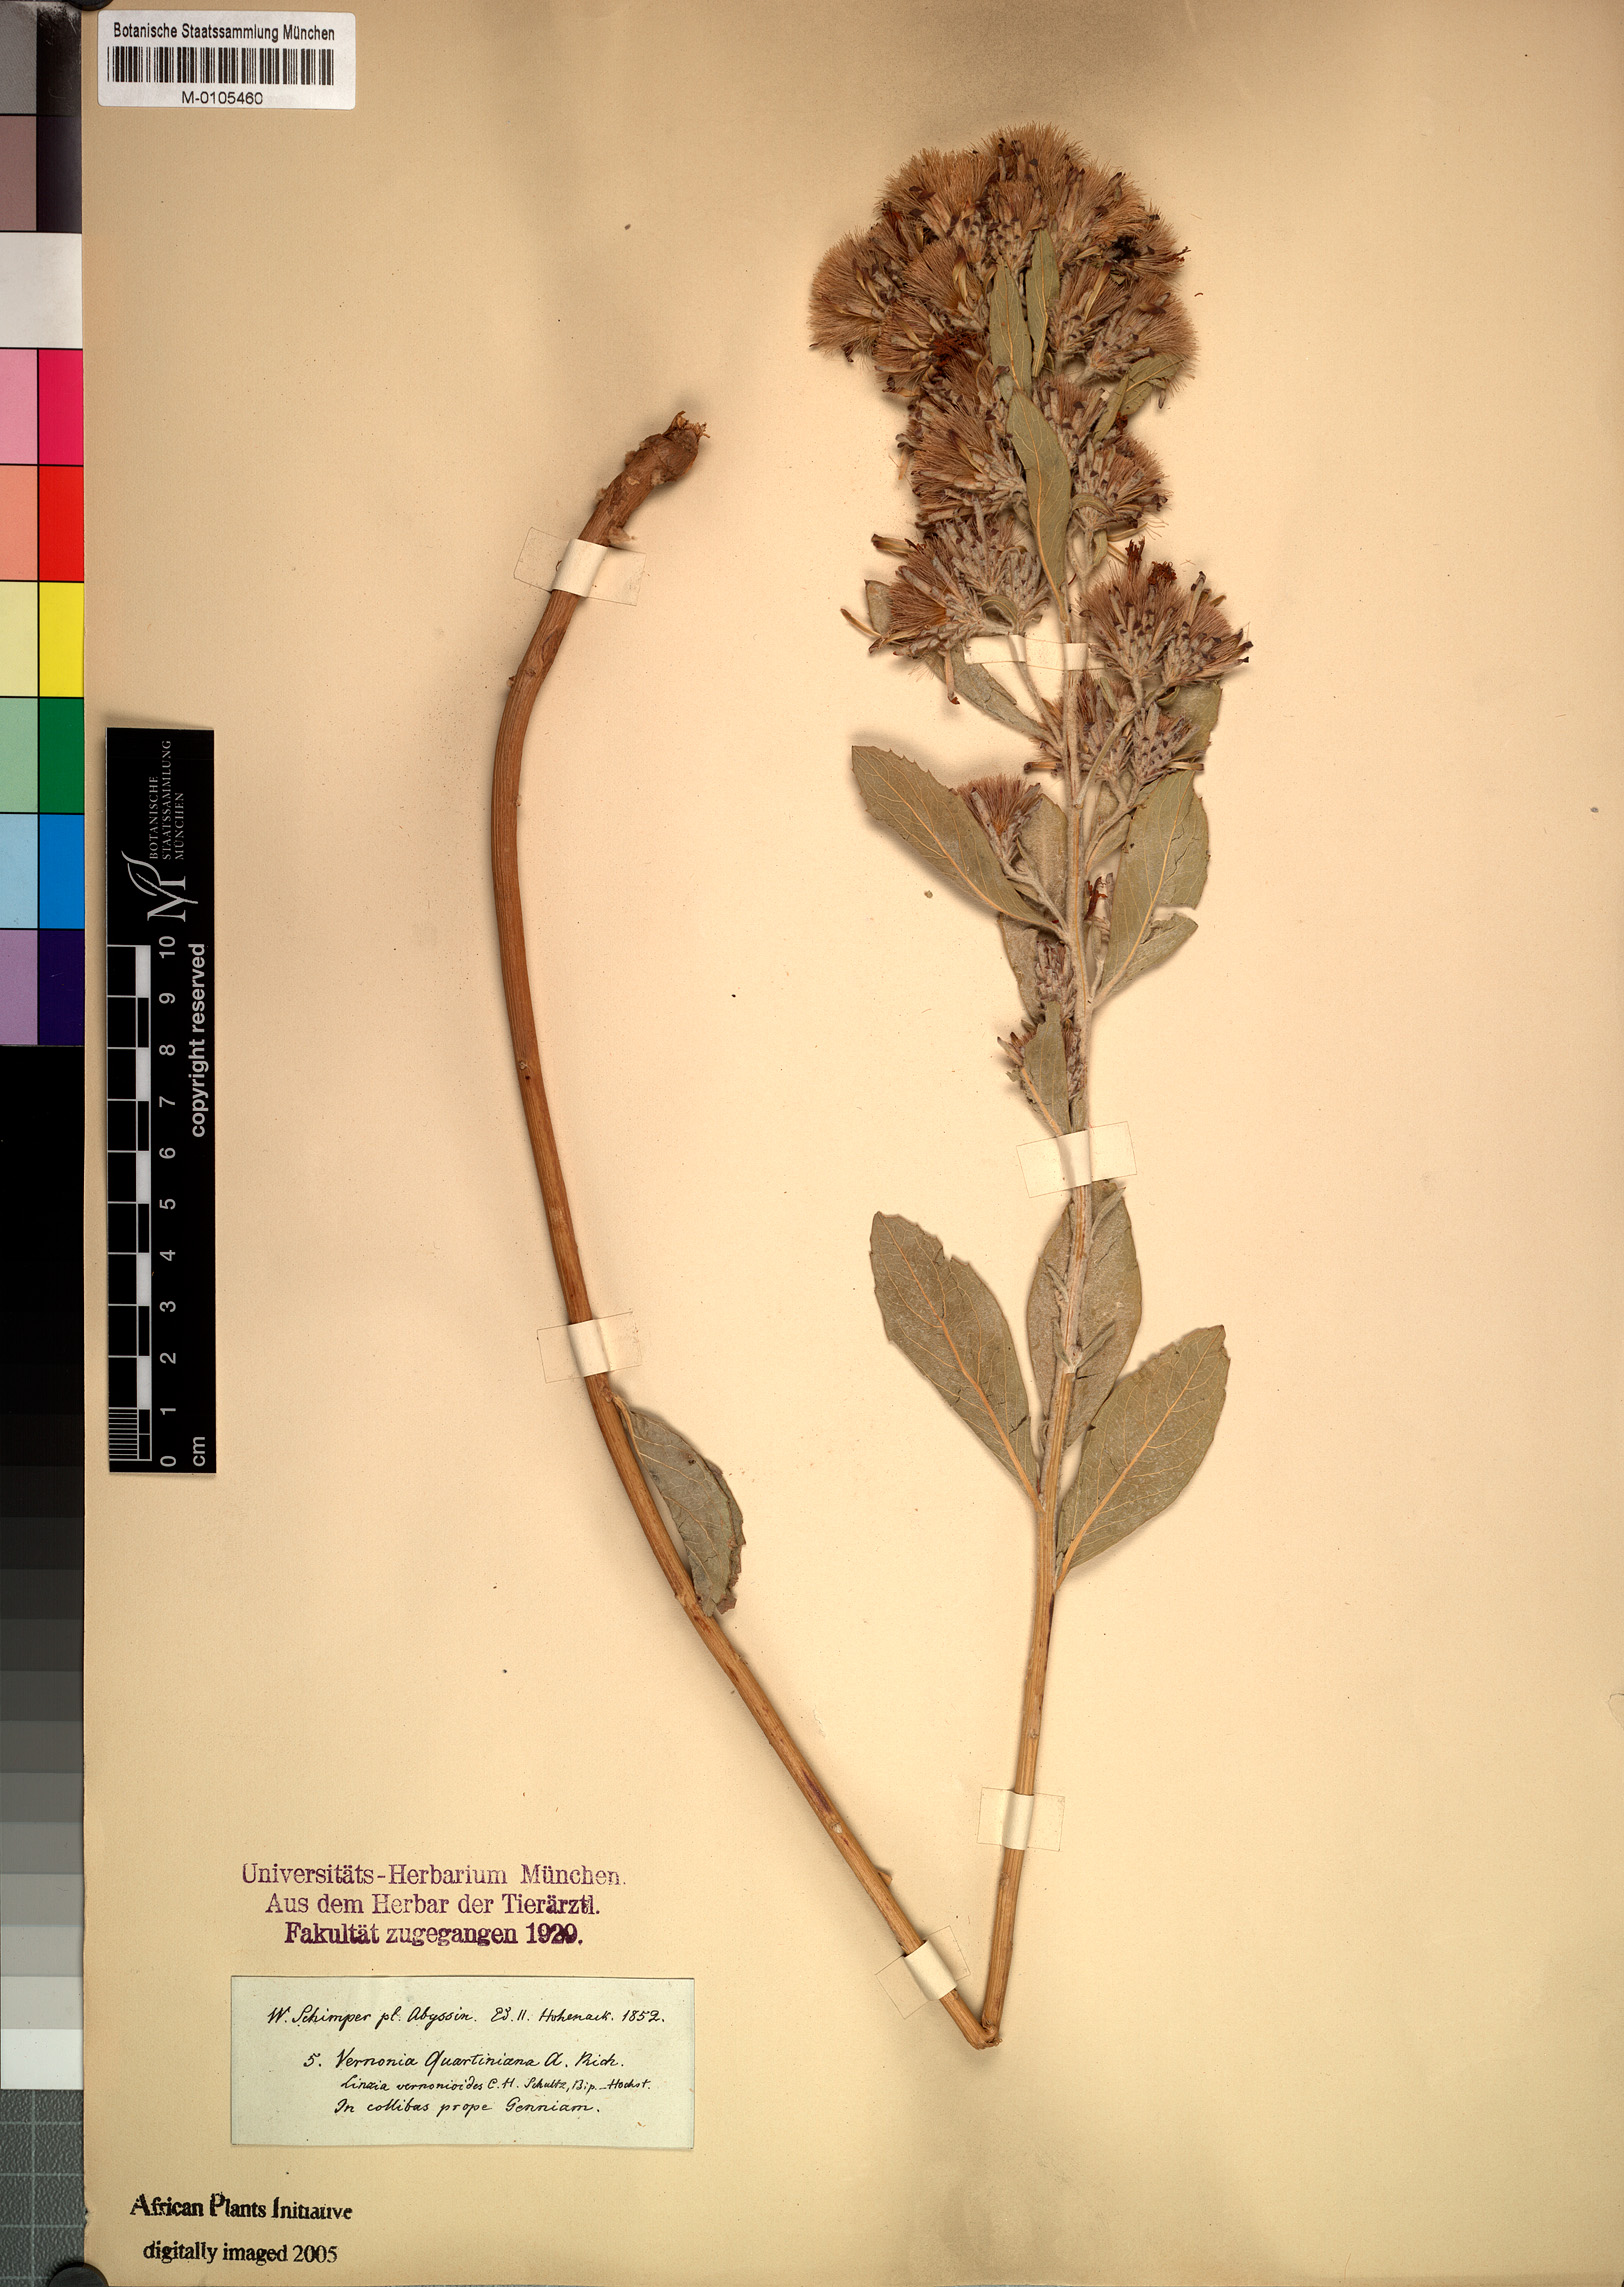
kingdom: Plantae
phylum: Tracheophyta
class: Magnoliopsida
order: Asterales
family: Asteraceae
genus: Vernonia
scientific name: Vernonia congolensis
